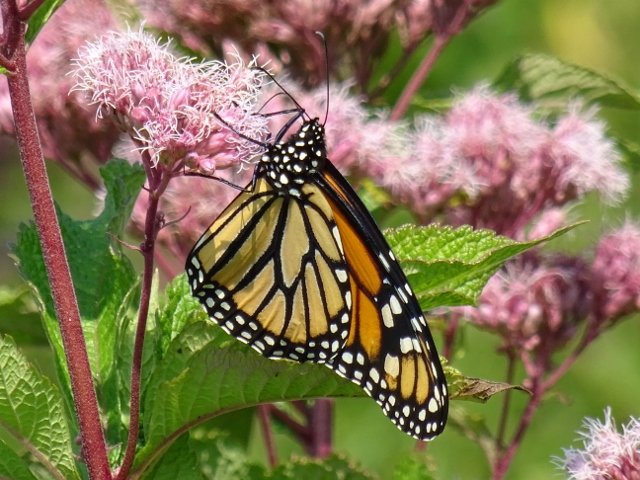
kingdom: Animalia
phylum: Arthropoda
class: Insecta
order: Lepidoptera
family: Nymphalidae
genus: Danaus
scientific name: Danaus plexippus
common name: Monarch
